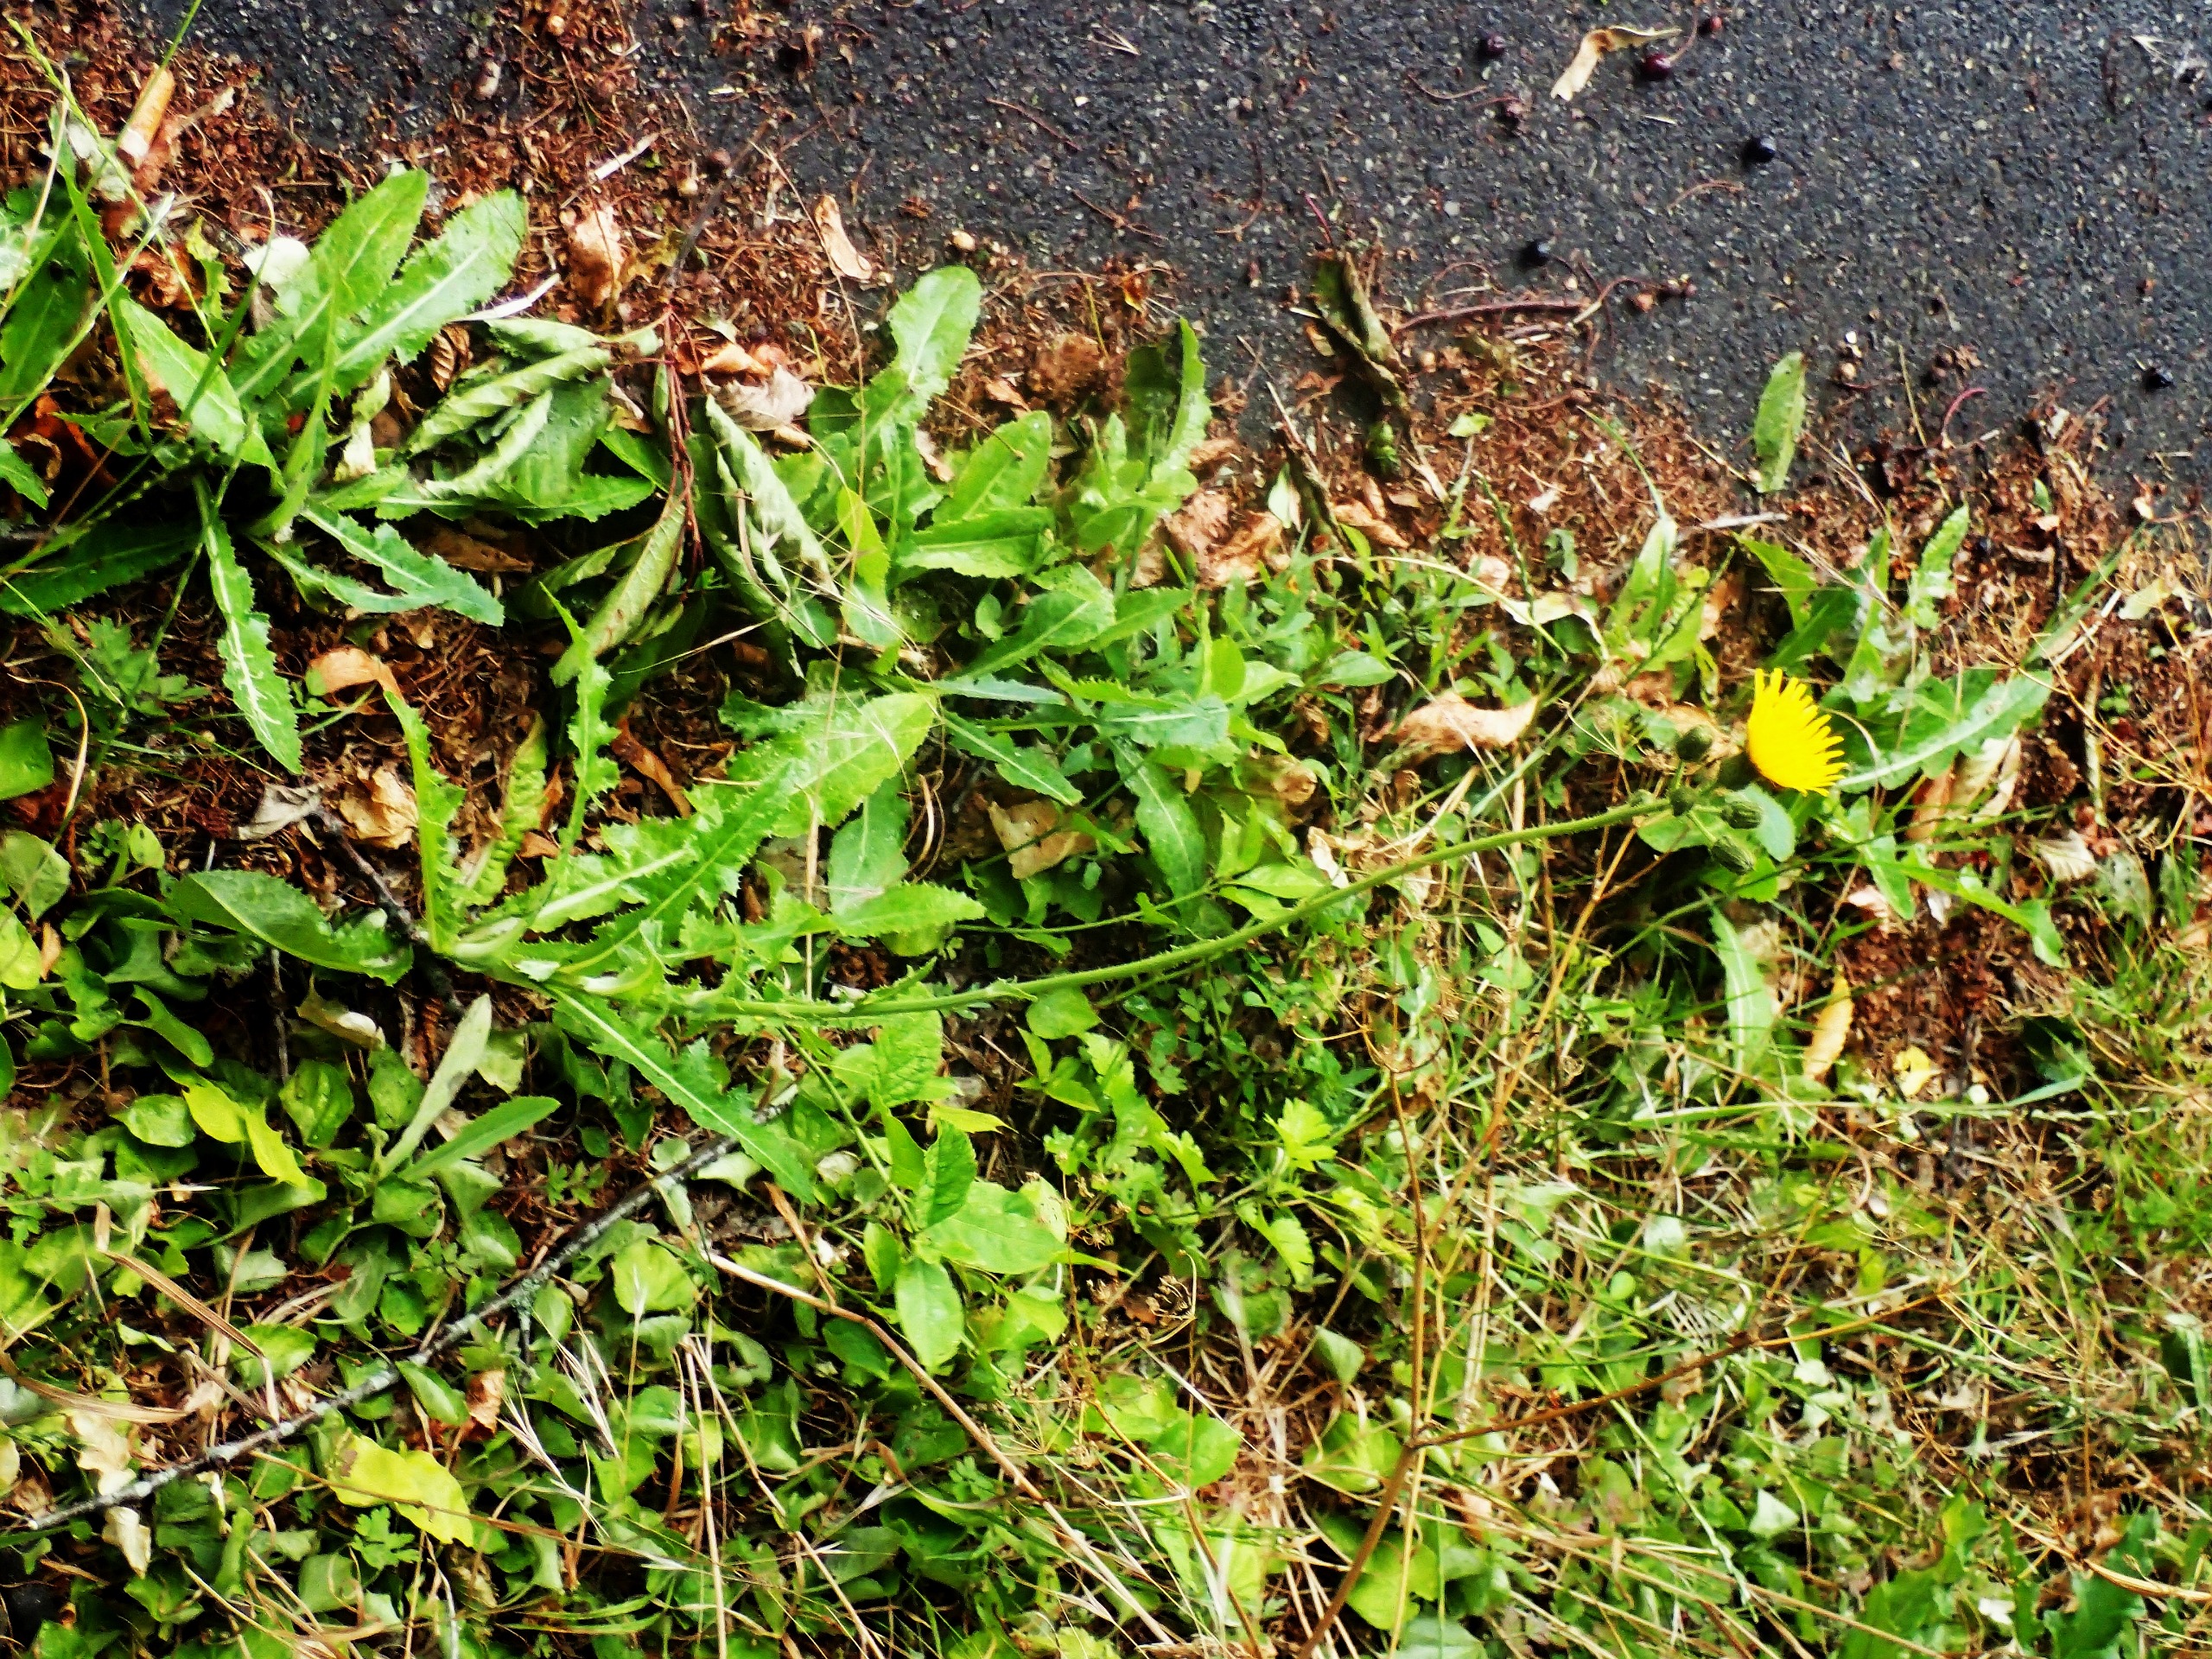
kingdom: Plantae
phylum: Tracheophyta
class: Magnoliopsida
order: Asterales
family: Asteraceae
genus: Sonchus
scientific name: Sonchus arvensis
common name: Ager-svinemælk
